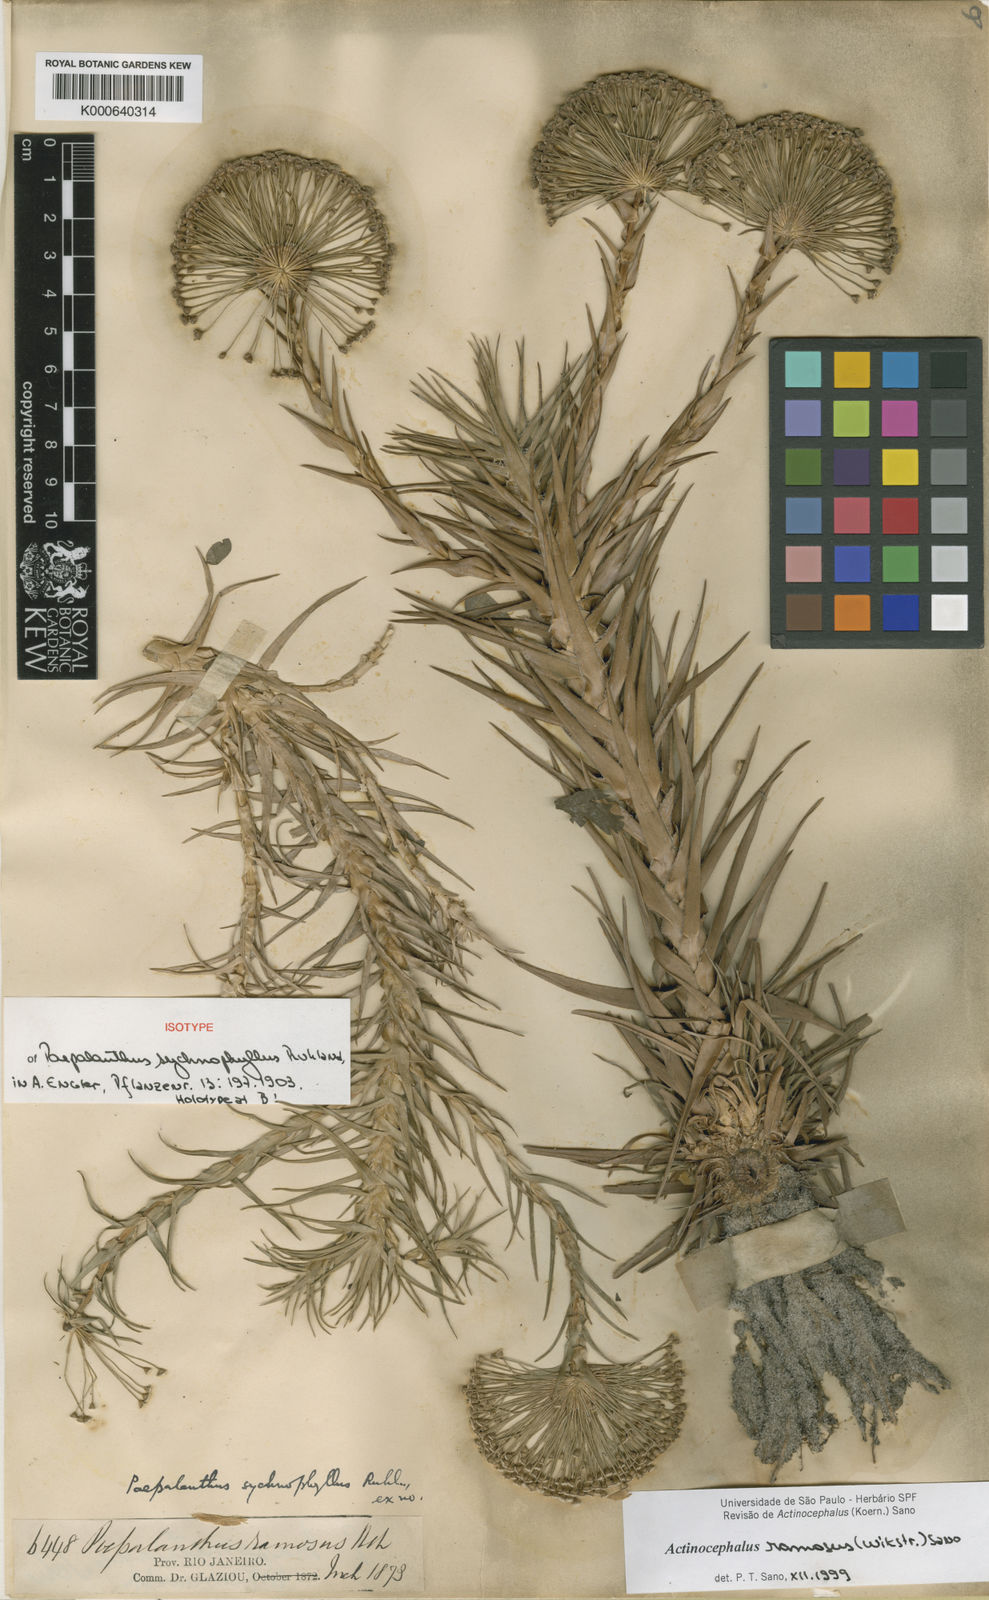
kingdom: Plantae
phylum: Tracheophyta
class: Liliopsida
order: Poales
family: Eriocaulaceae
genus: Paepalanthus
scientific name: Paepalanthus ramosus
